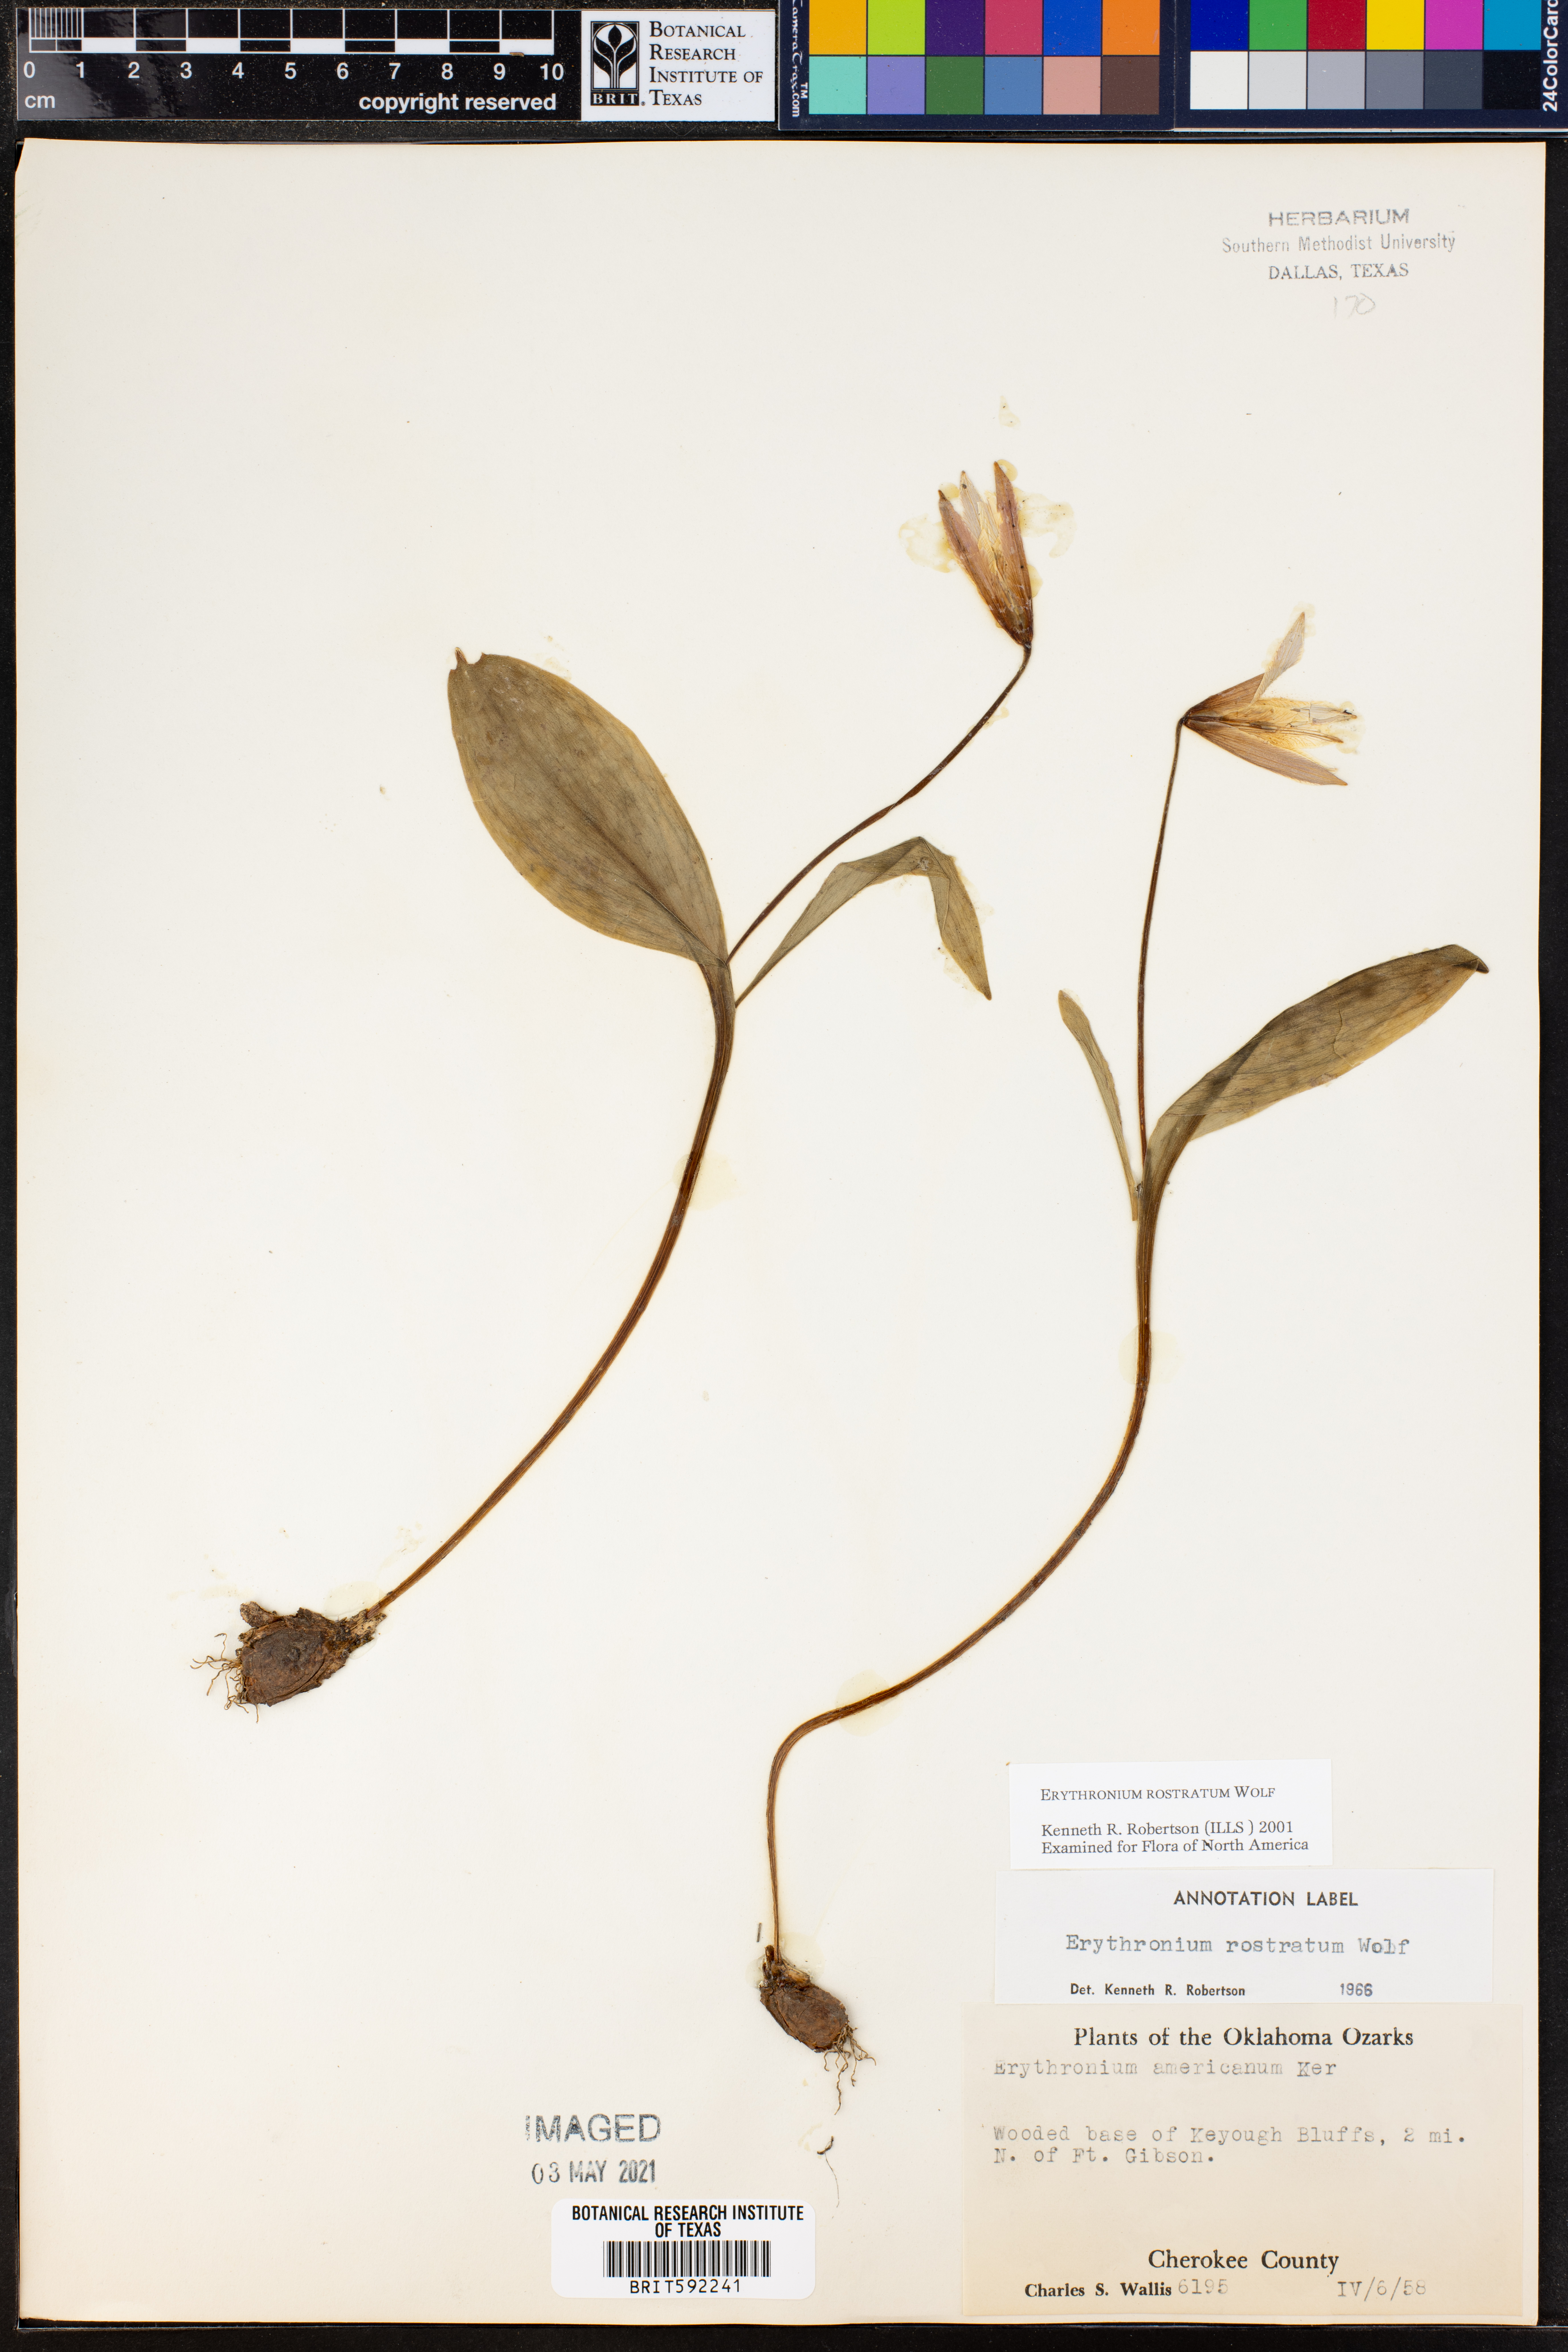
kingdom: Plantae
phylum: Tracheophyta
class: Liliopsida
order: Liliales
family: Liliaceae
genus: Erythronium
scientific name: Erythronium rostratum
